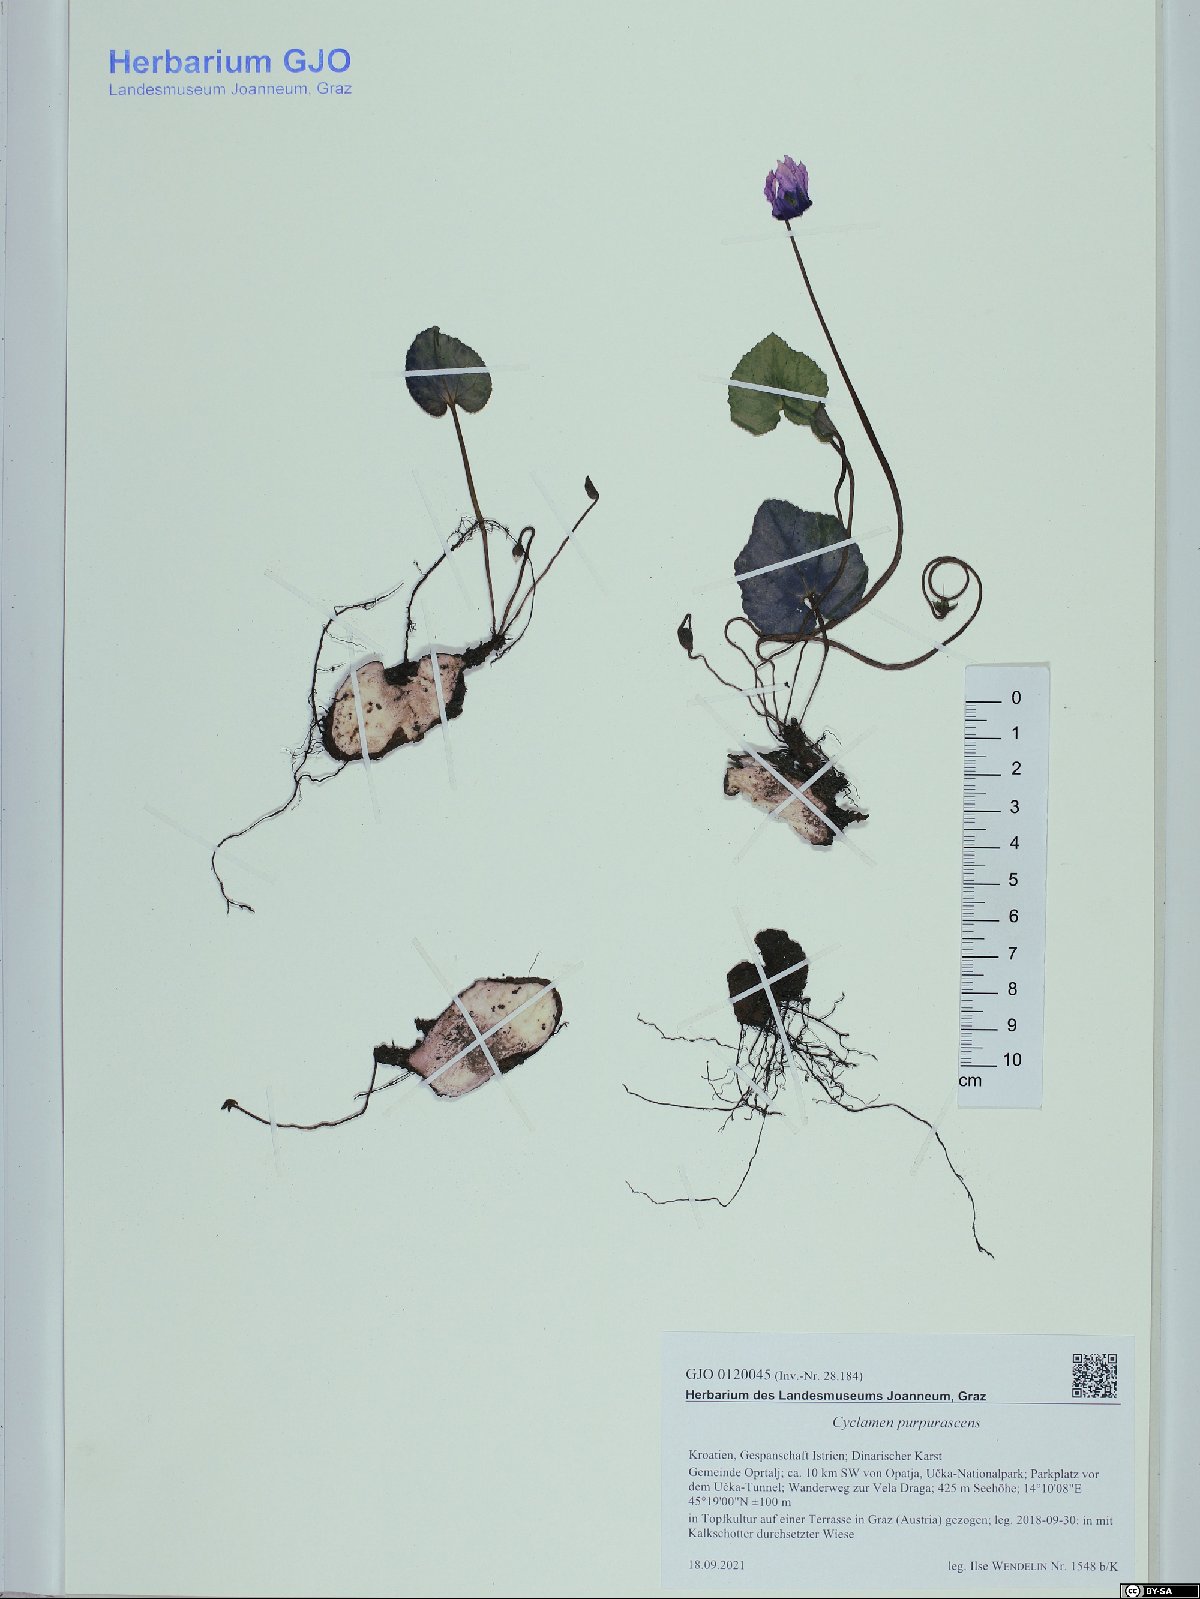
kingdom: Plantae
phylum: Tracheophyta
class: Magnoliopsida
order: Ericales
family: Primulaceae
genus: Cyclamen
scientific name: Cyclamen purpurascens
